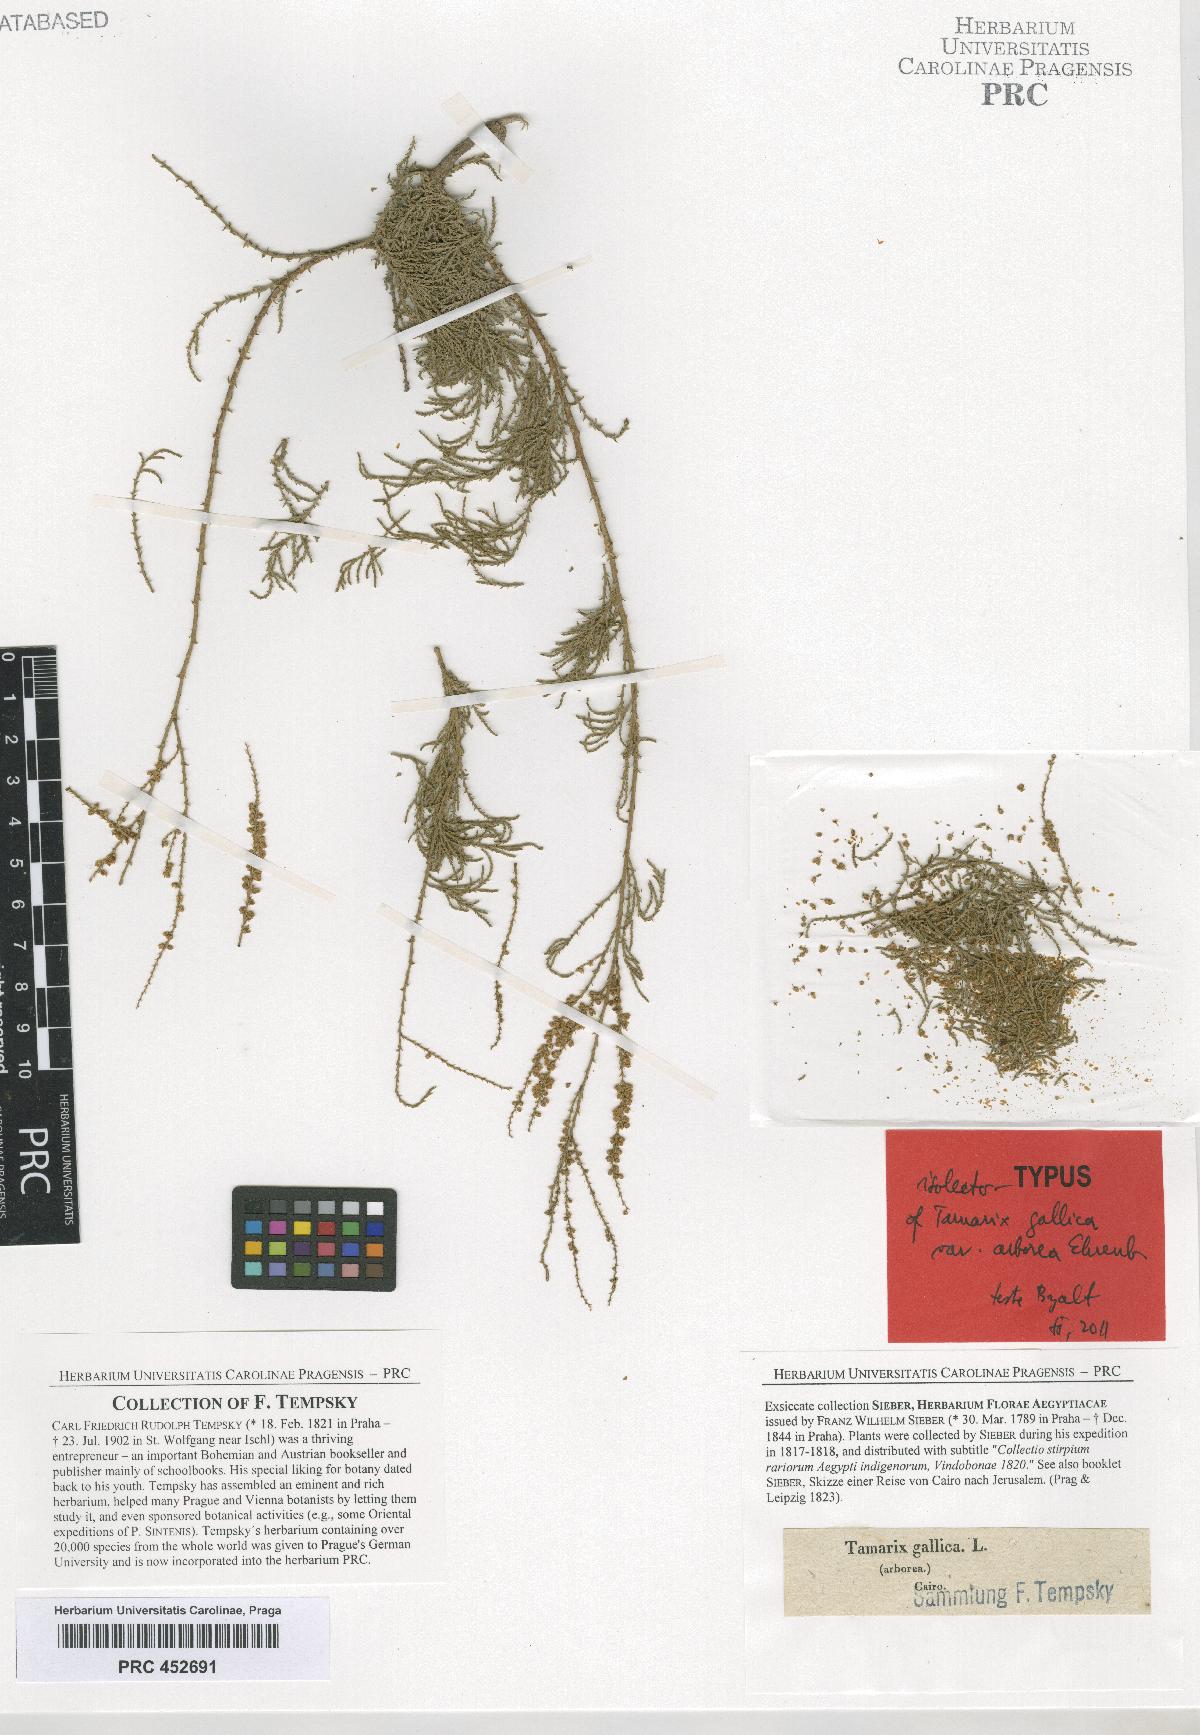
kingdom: Plantae
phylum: Tracheophyta
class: Magnoliopsida
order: Caryophyllales
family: Tamaricaceae
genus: Tamarix
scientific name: Tamarix
